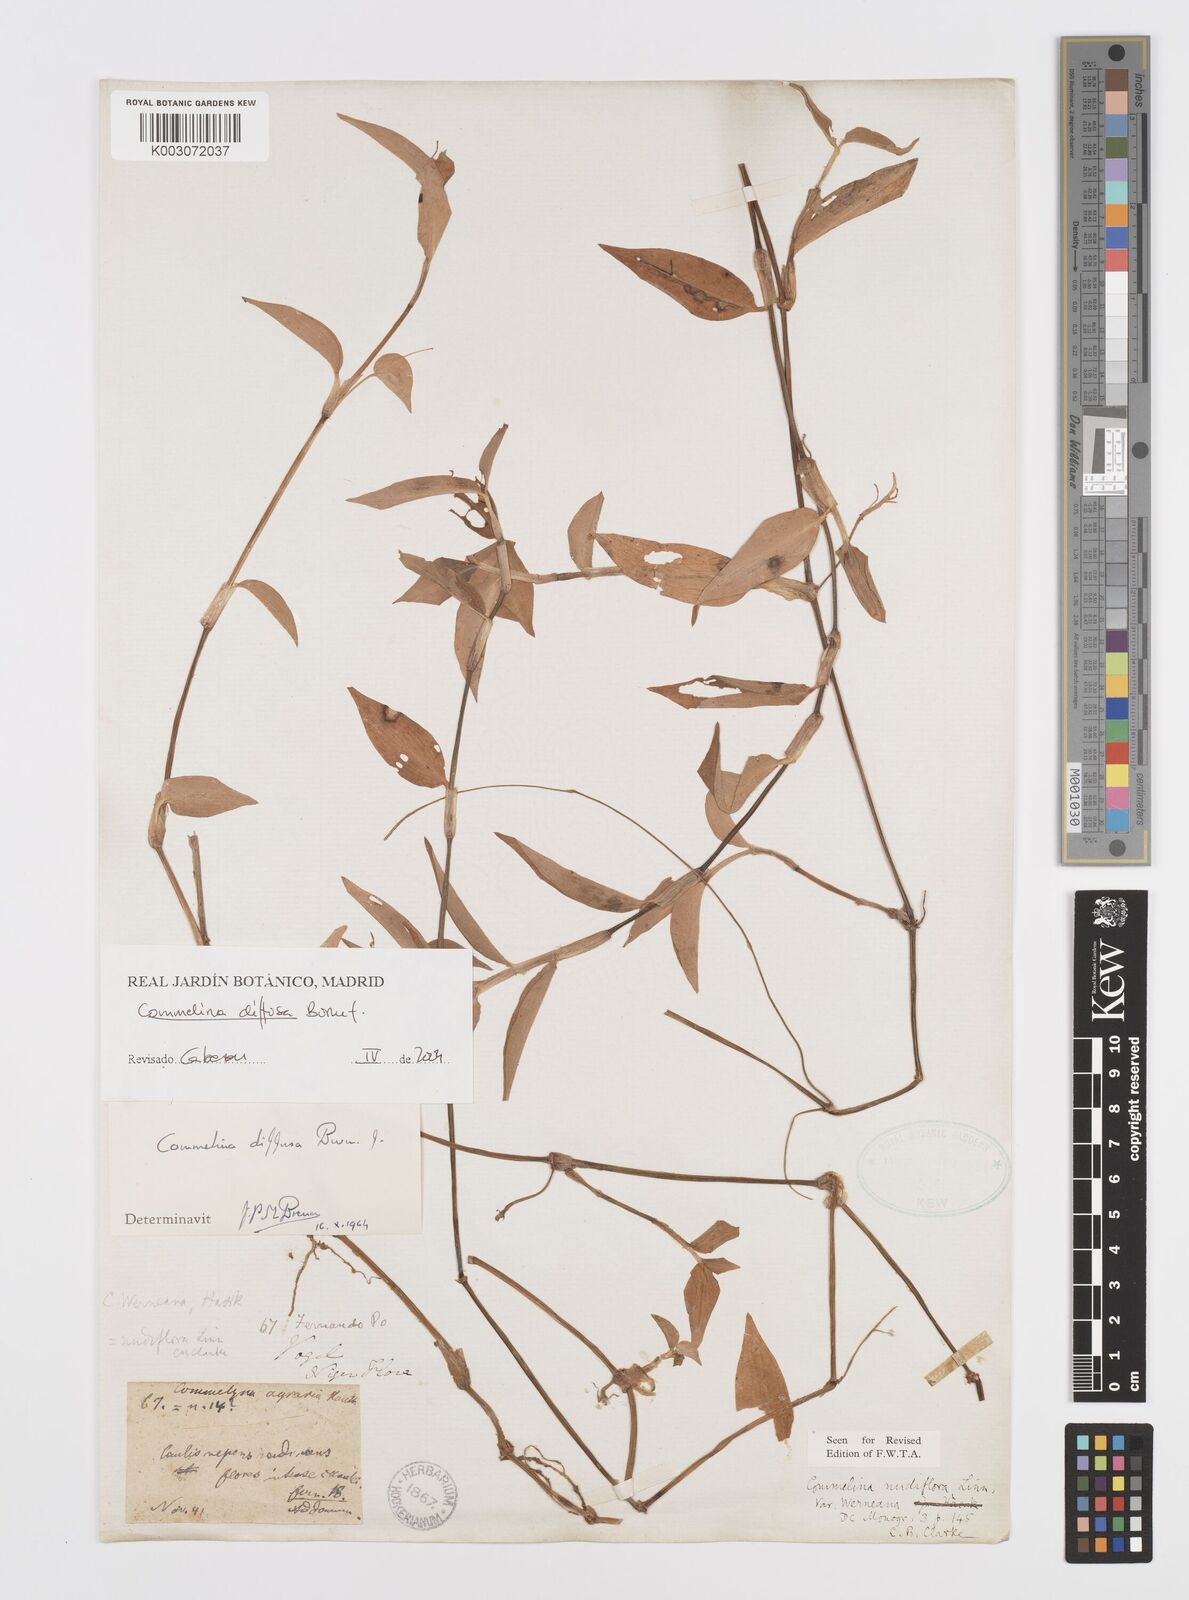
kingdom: Plantae
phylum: Tracheophyta
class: Liliopsida
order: Commelinales
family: Commelinaceae
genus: Commelina
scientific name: Commelina diffusa
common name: Climbing dayflower
